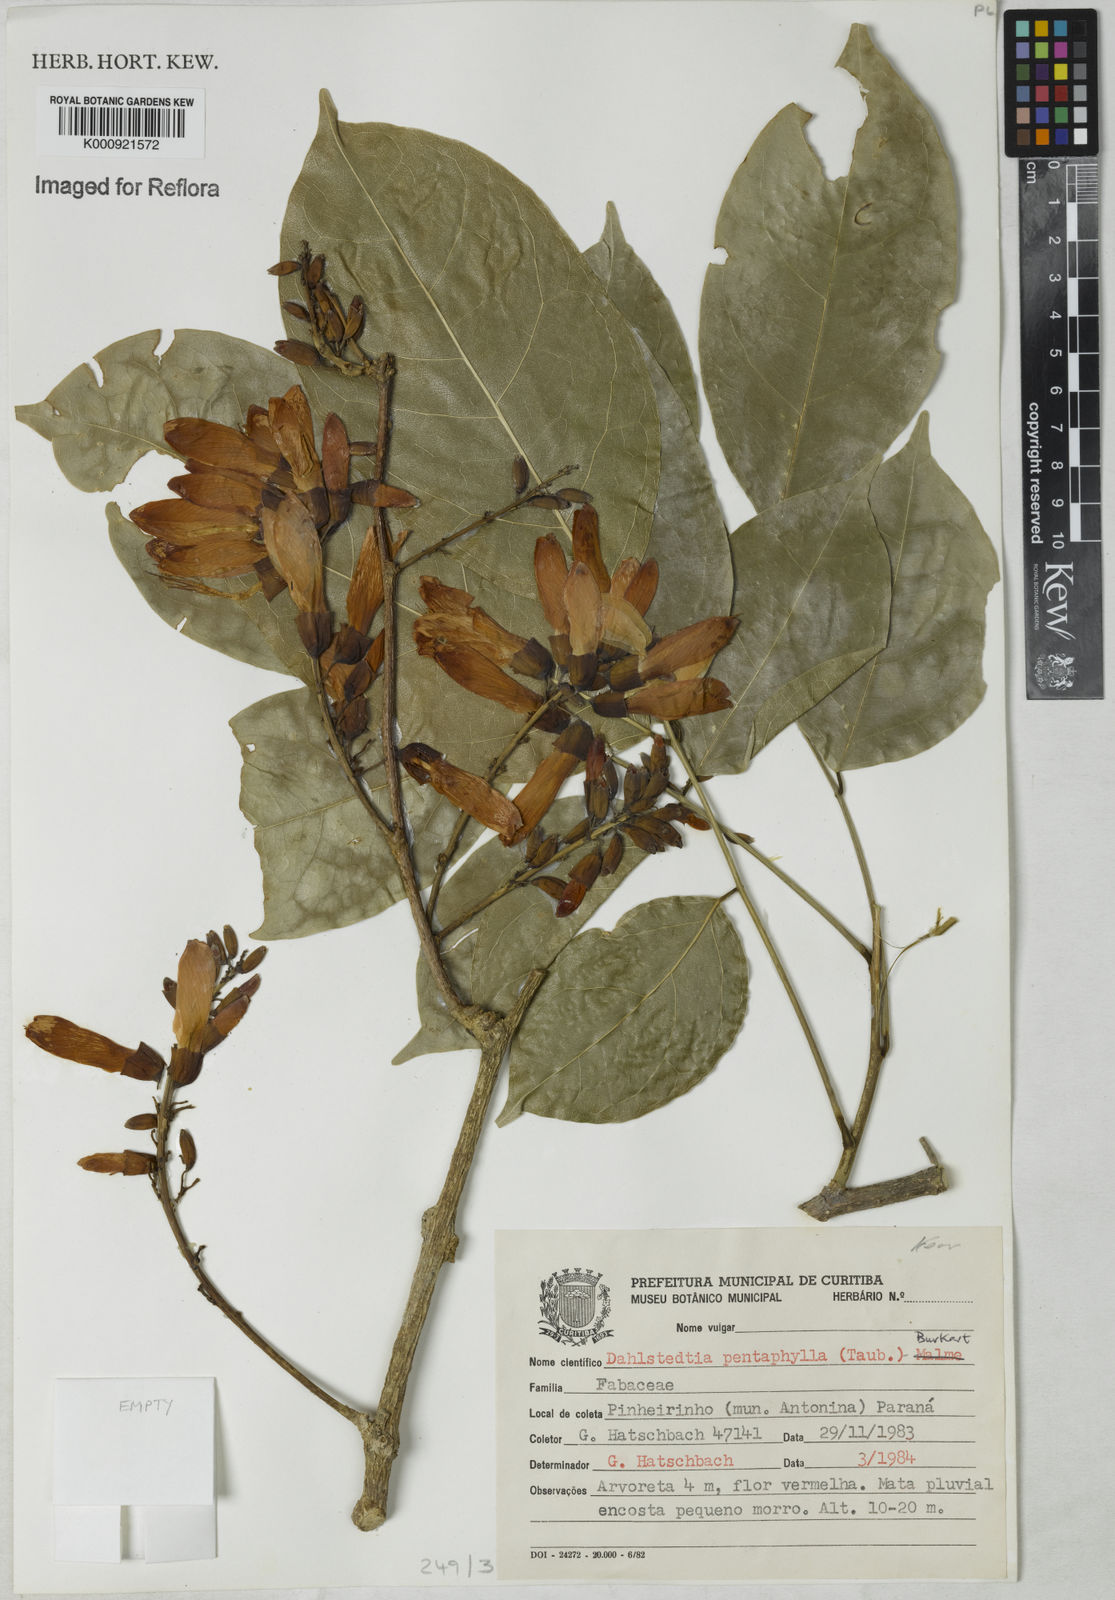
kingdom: Plantae
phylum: Tracheophyta
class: Magnoliopsida
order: Fabales
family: Fabaceae
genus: Dahlstedtia
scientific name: Dahlstedtia pentaphylla
